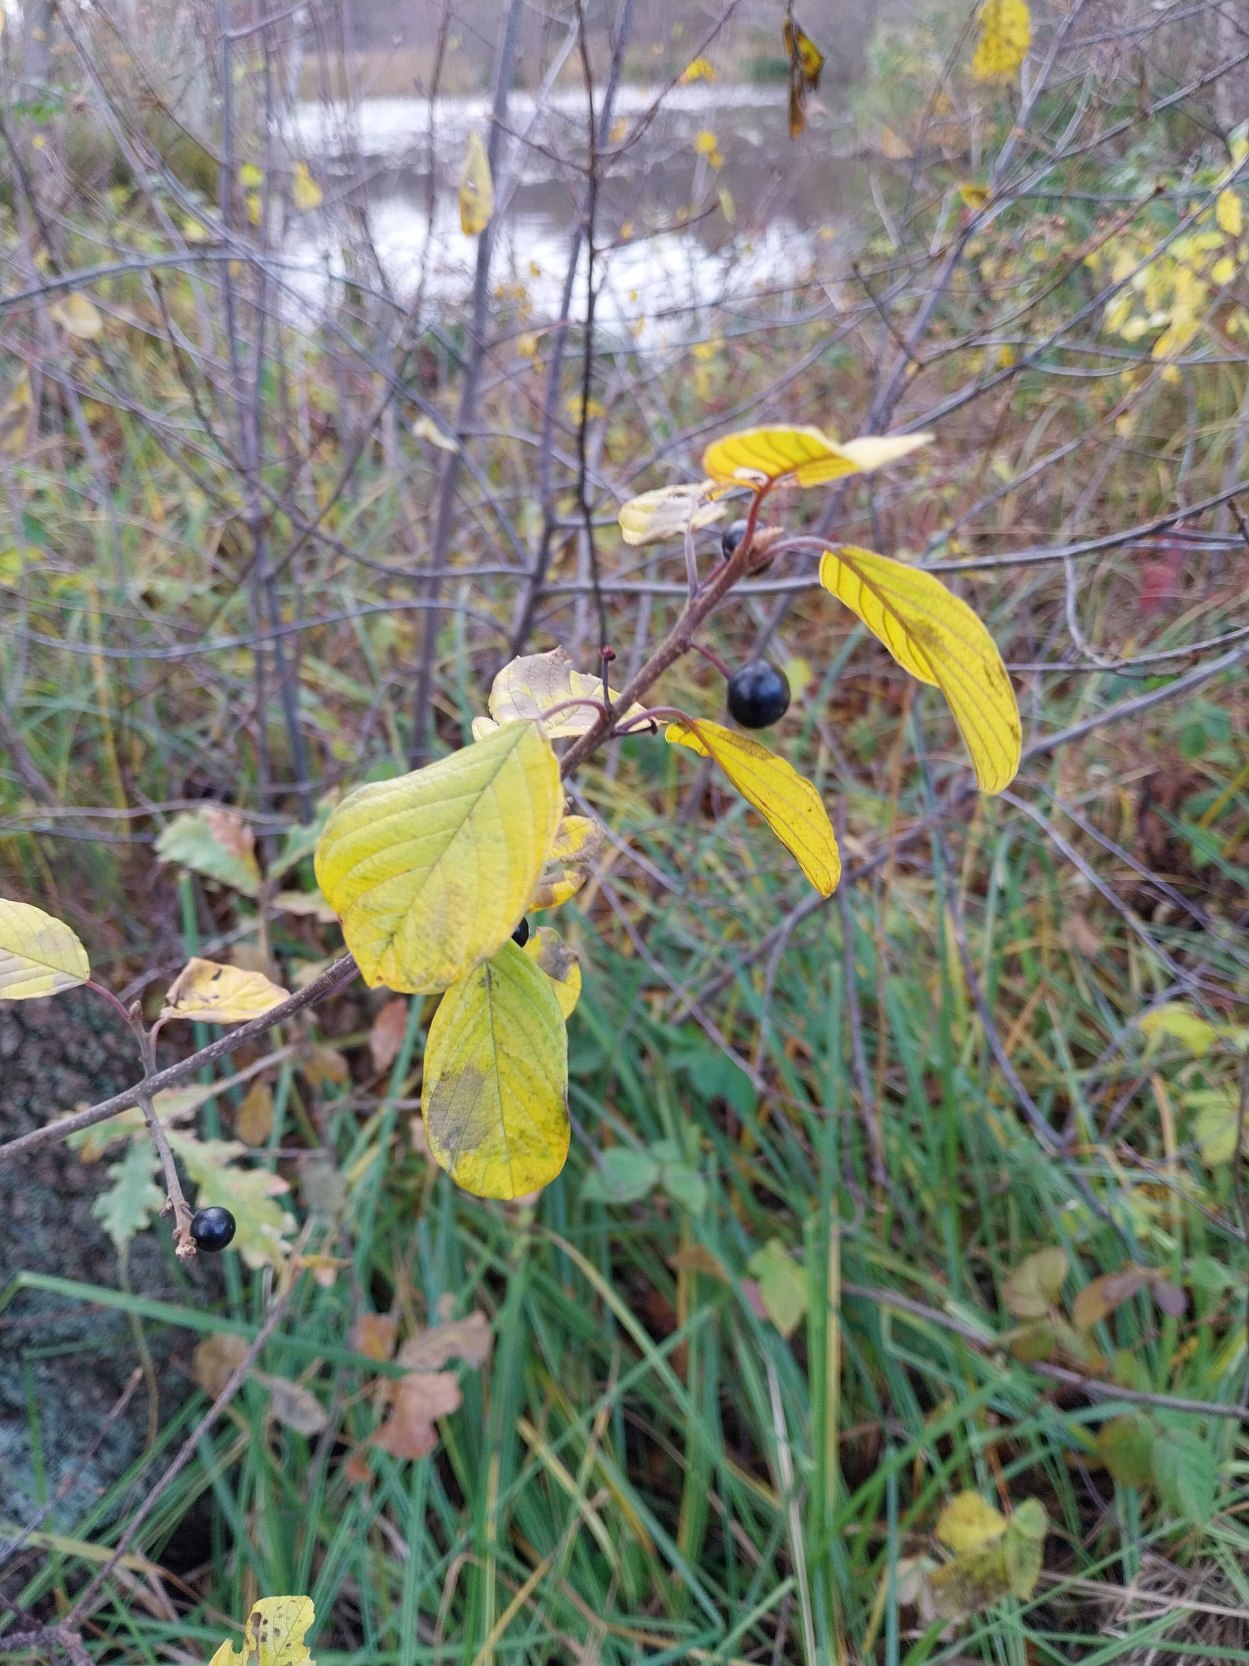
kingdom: Plantae
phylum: Tracheophyta
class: Magnoliopsida
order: Rosales
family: Rhamnaceae
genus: Frangula
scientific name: Frangula alnus
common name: Tørst
